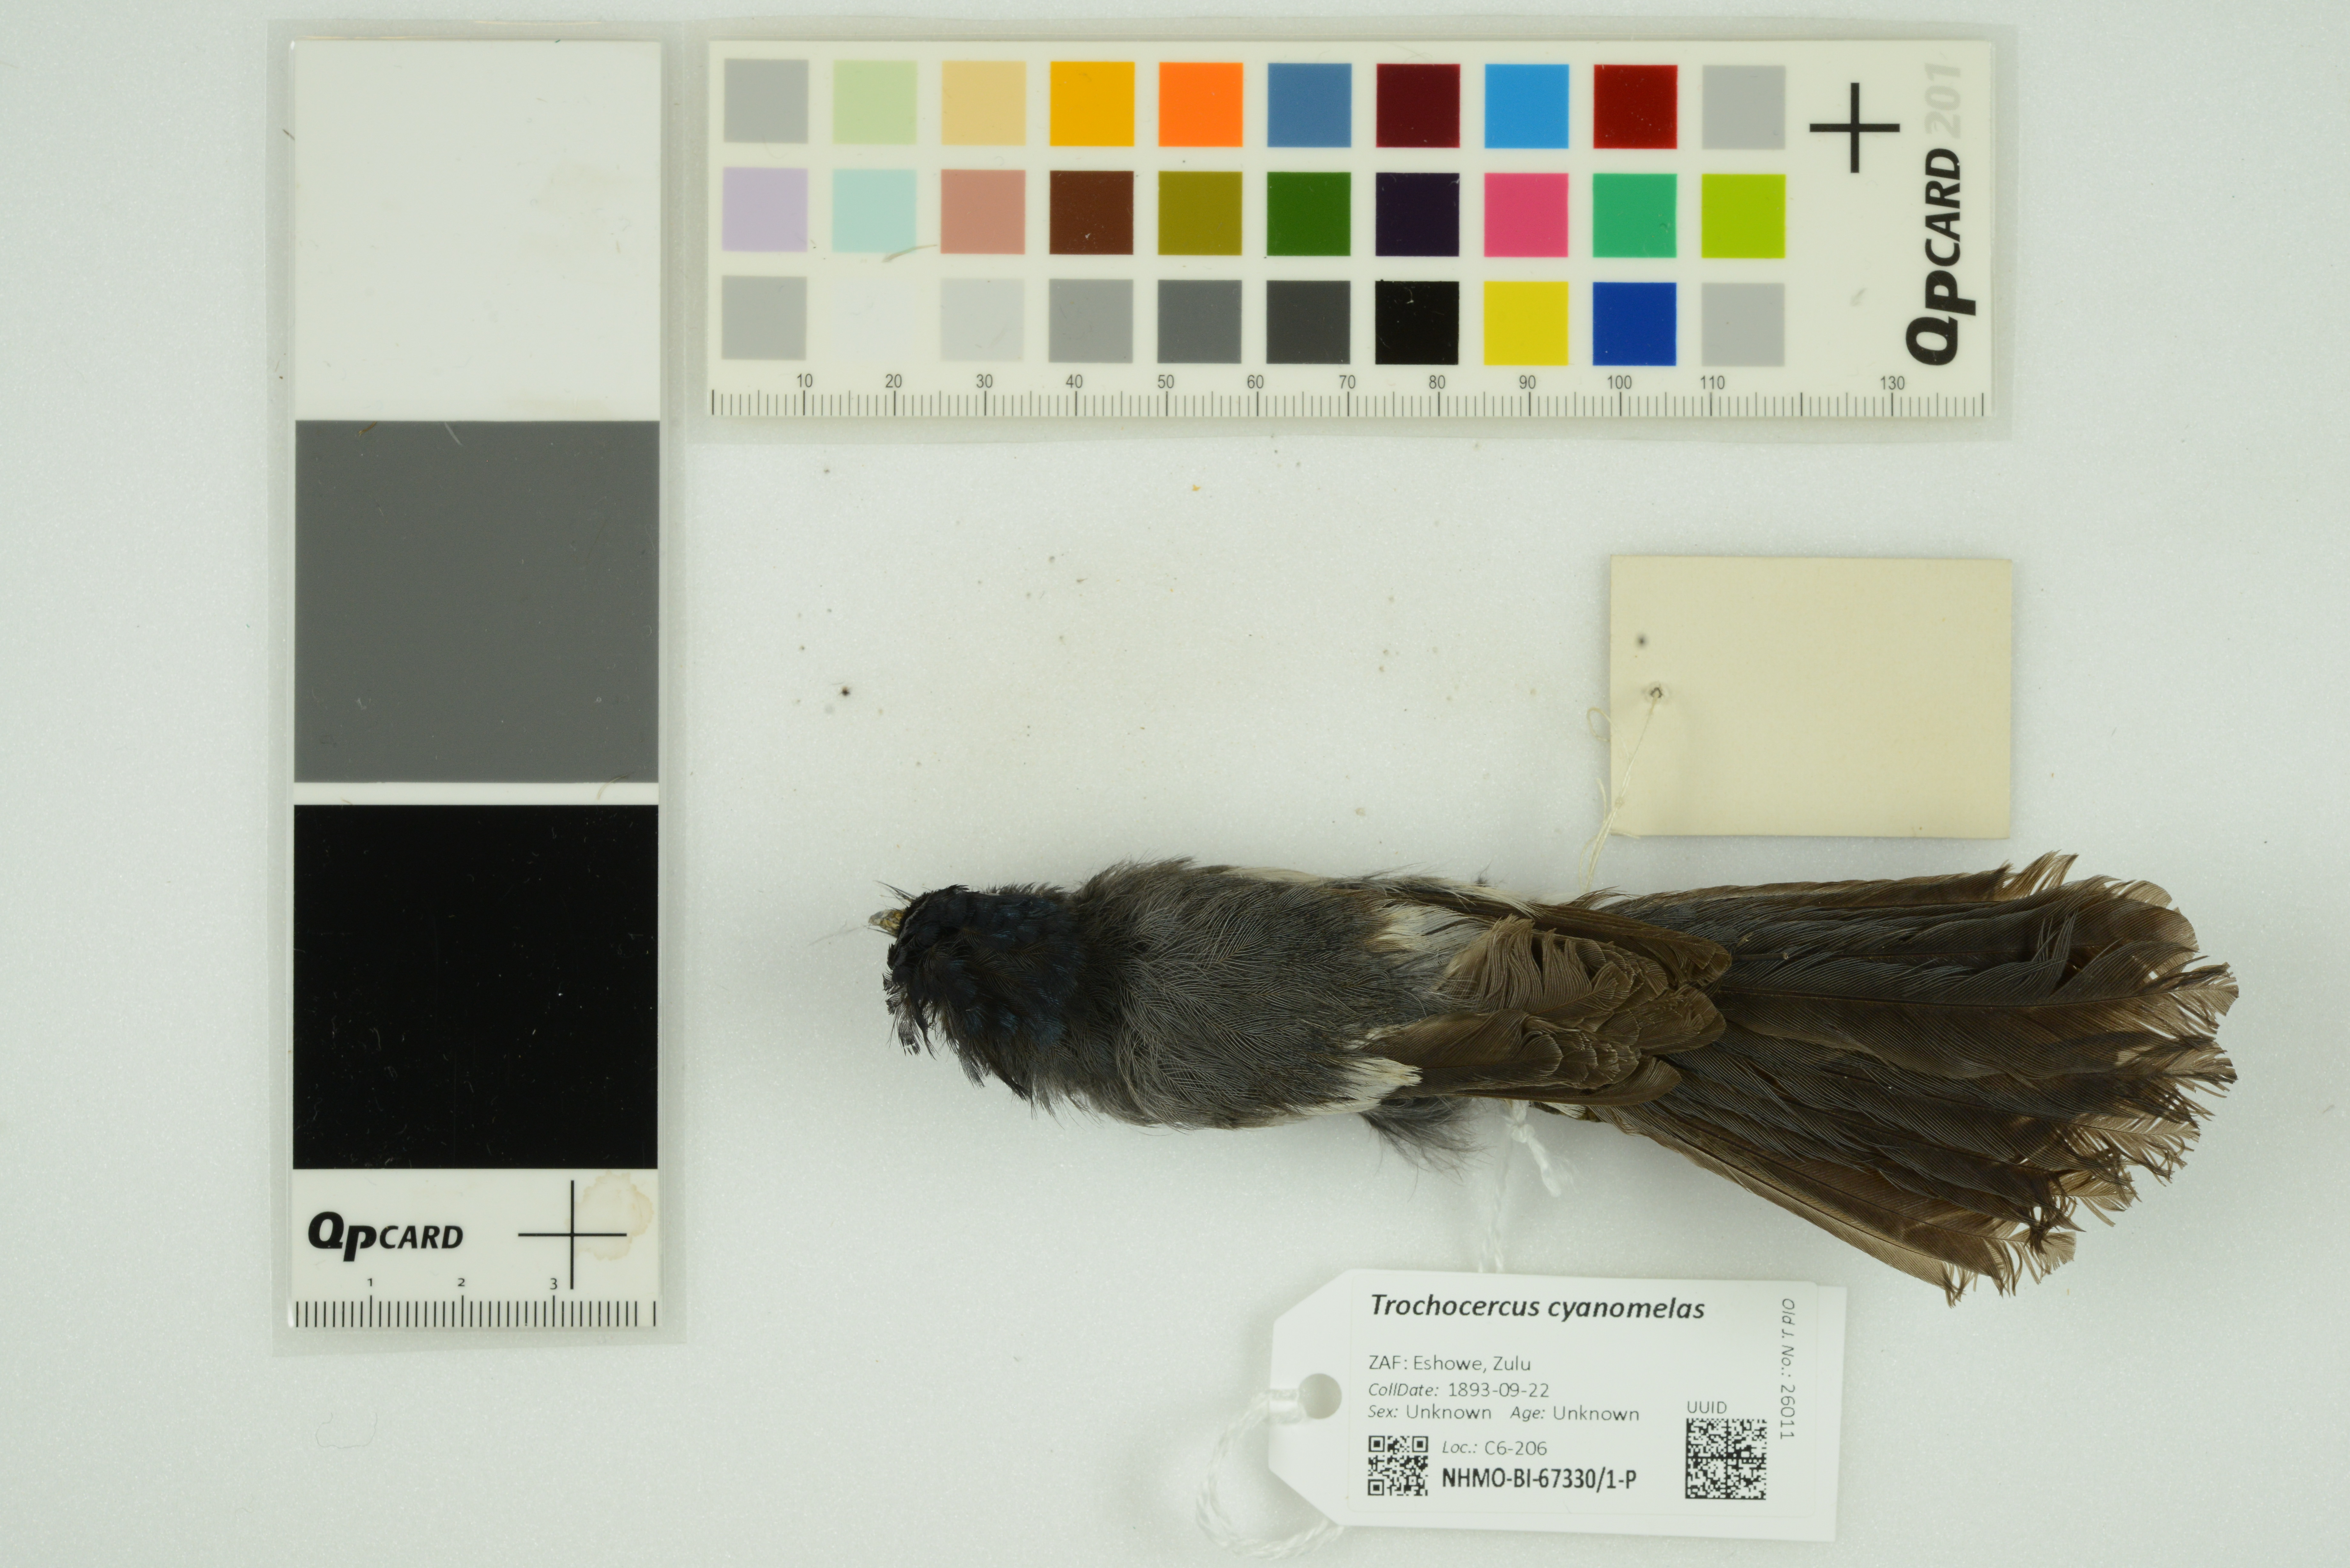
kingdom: Animalia
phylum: Chordata
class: Aves
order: Passeriformes
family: Monarchidae
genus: Trochocercus
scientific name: Trochocercus cyanomelas
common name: Blue-mantled crested flycatcher
